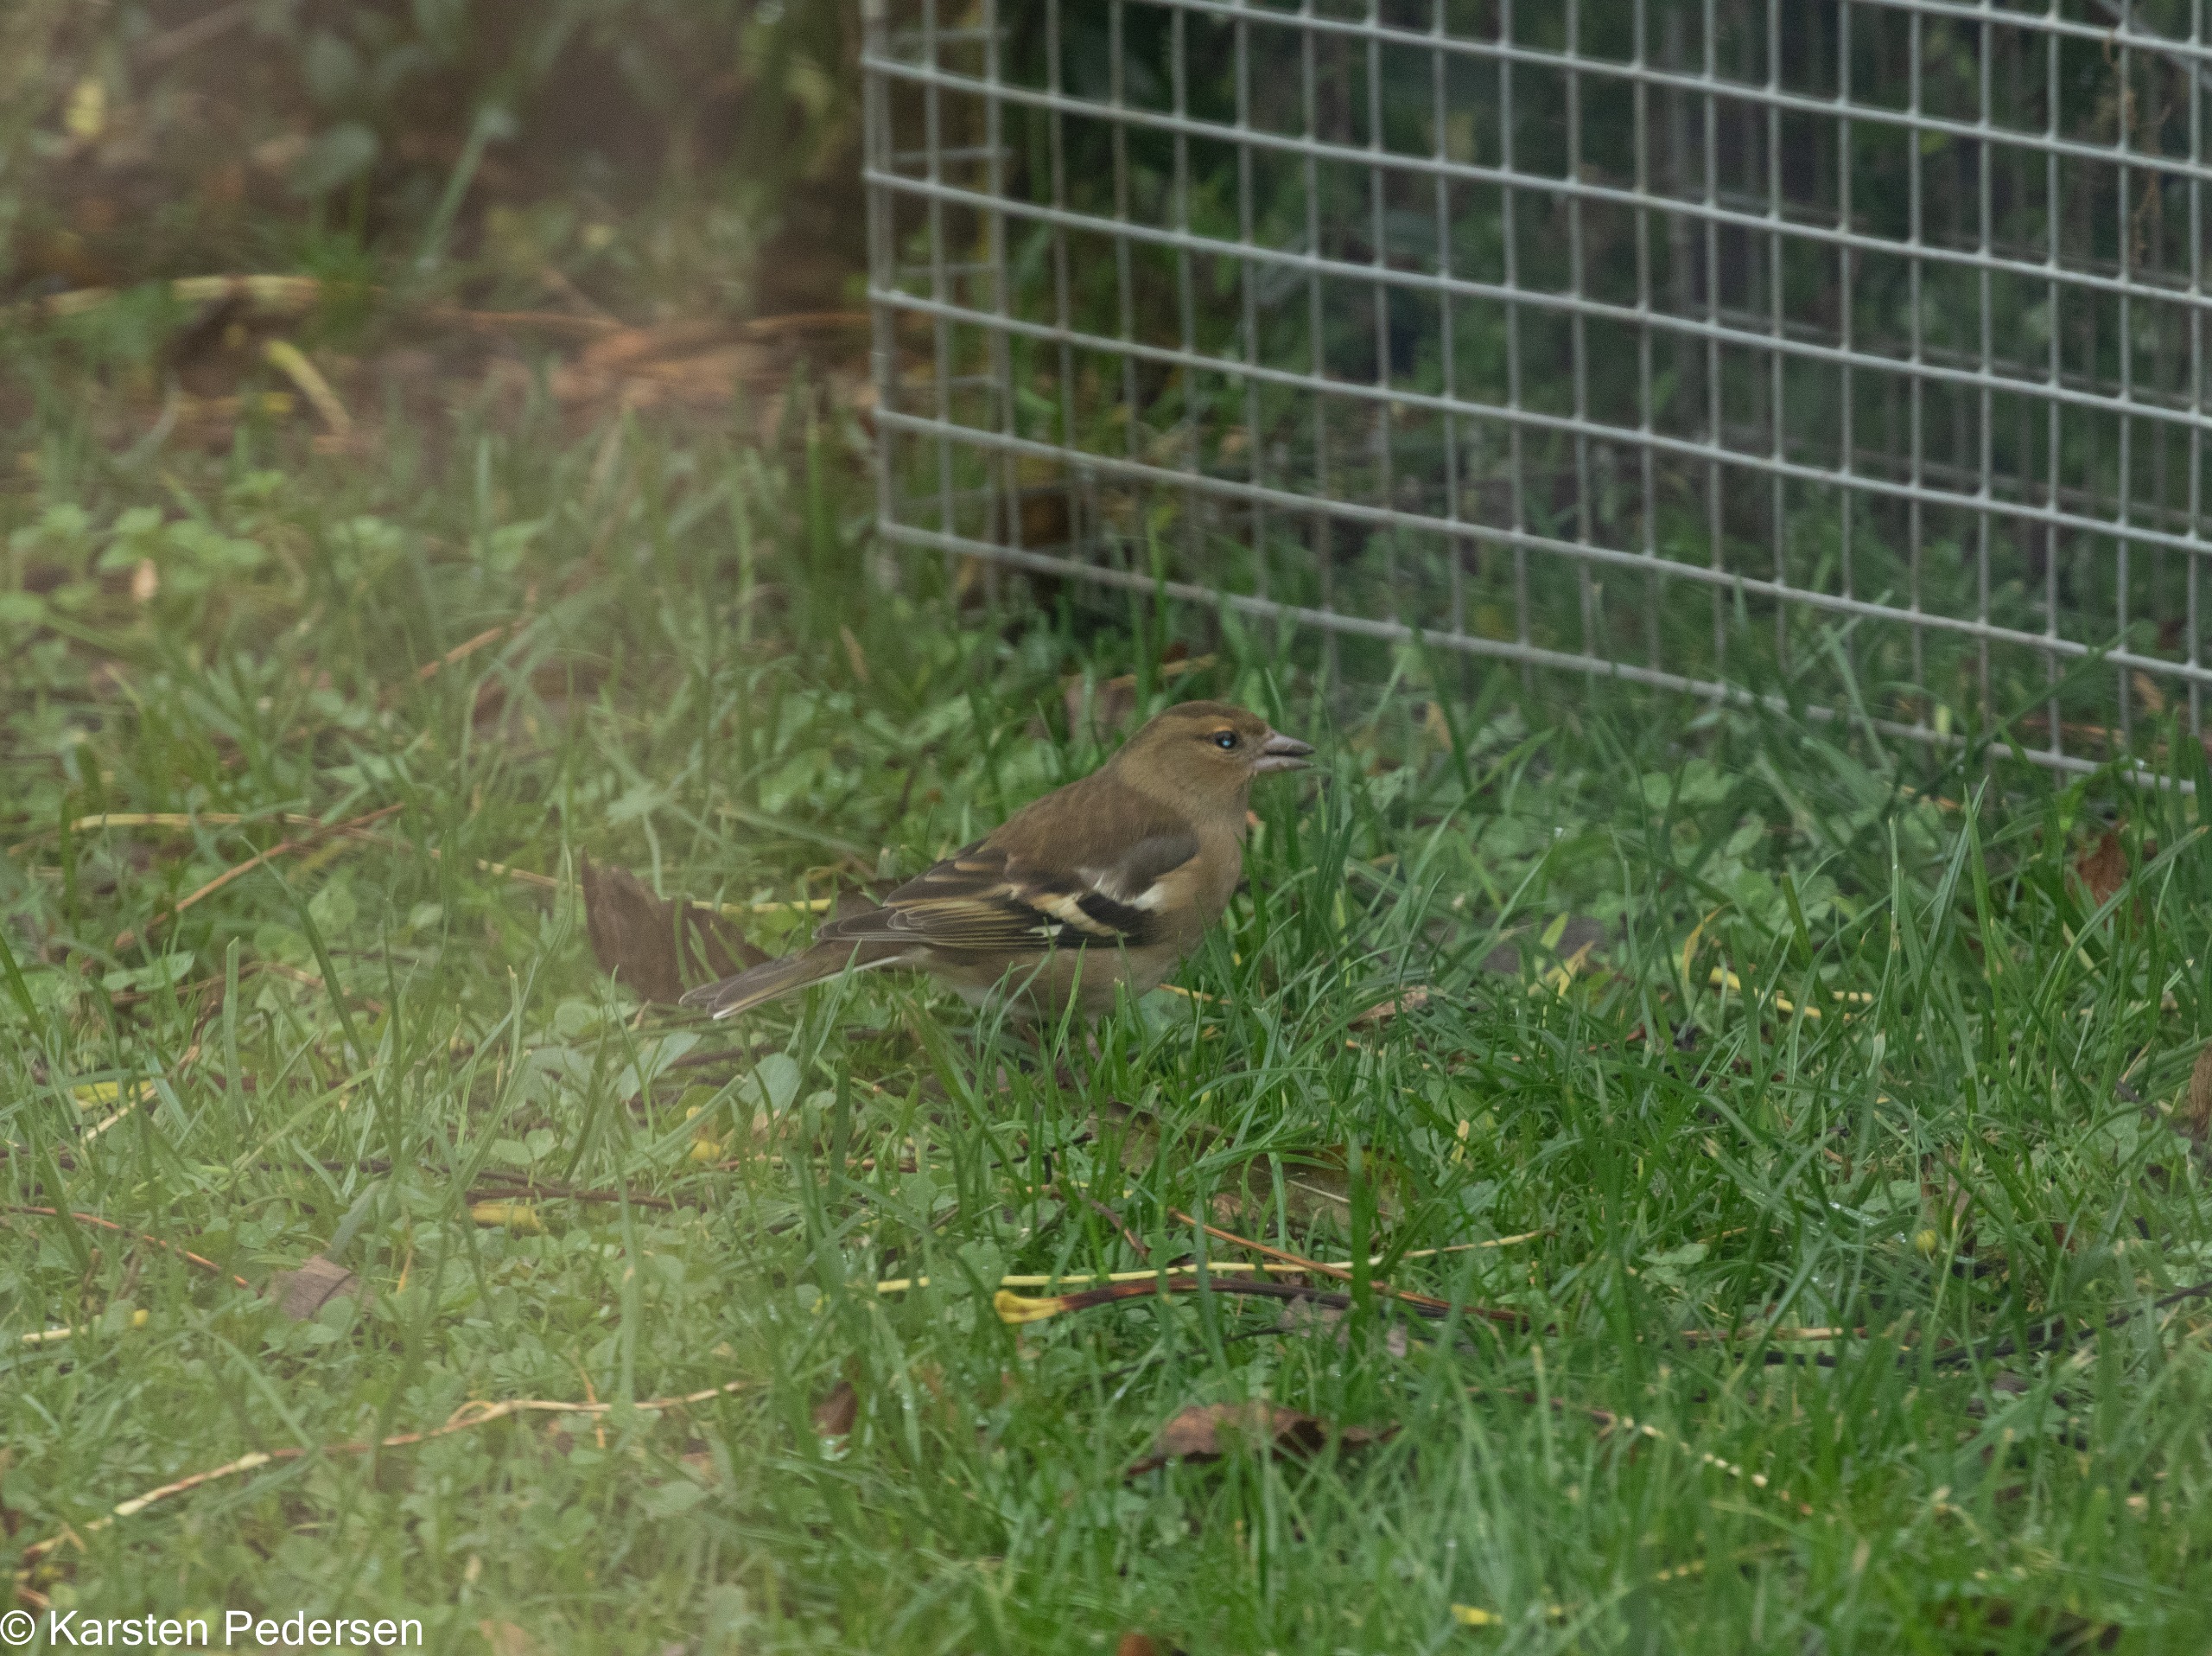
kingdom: Animalia
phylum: Chordata
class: Aves
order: Passeriformes
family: Fringillidae
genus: Fringilla
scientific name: Fringilla coelebs
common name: Bogfinke
